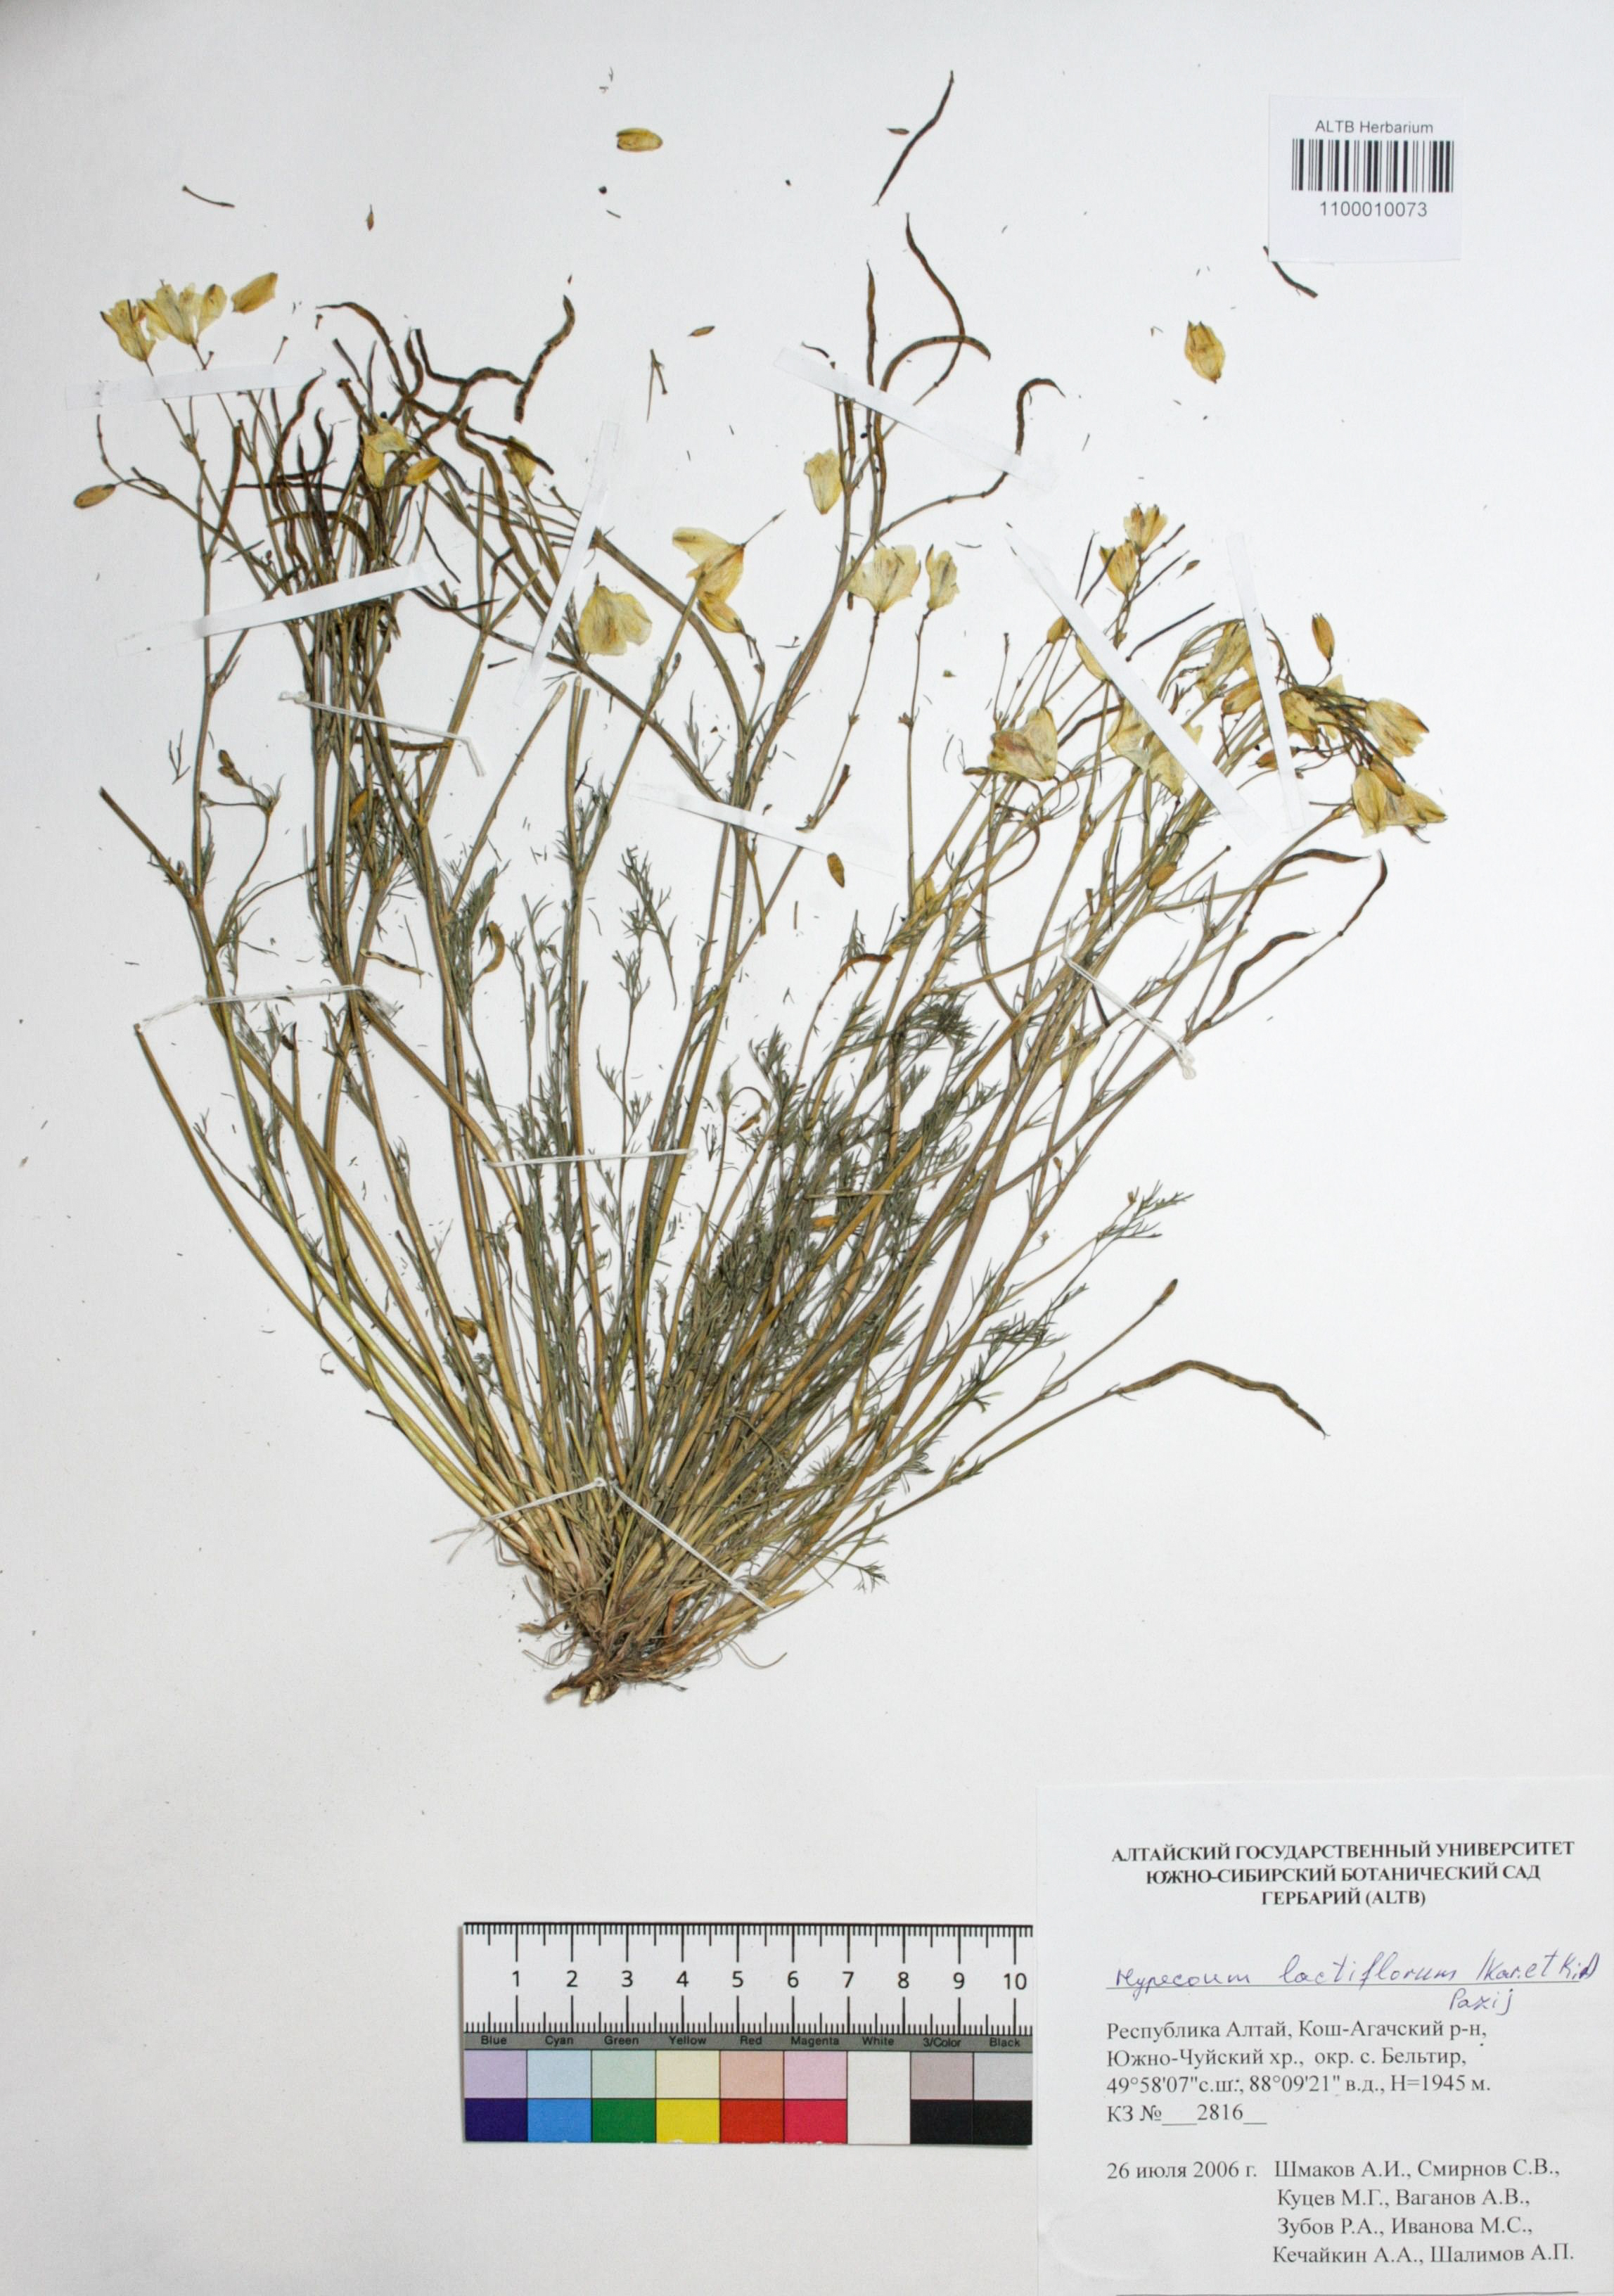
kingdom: Plantae
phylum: Tracheophyta
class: Magnoliopsida
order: Ranunculales
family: Papaveraceae
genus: Hypecoum
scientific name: Hypecoum lactiflorum
